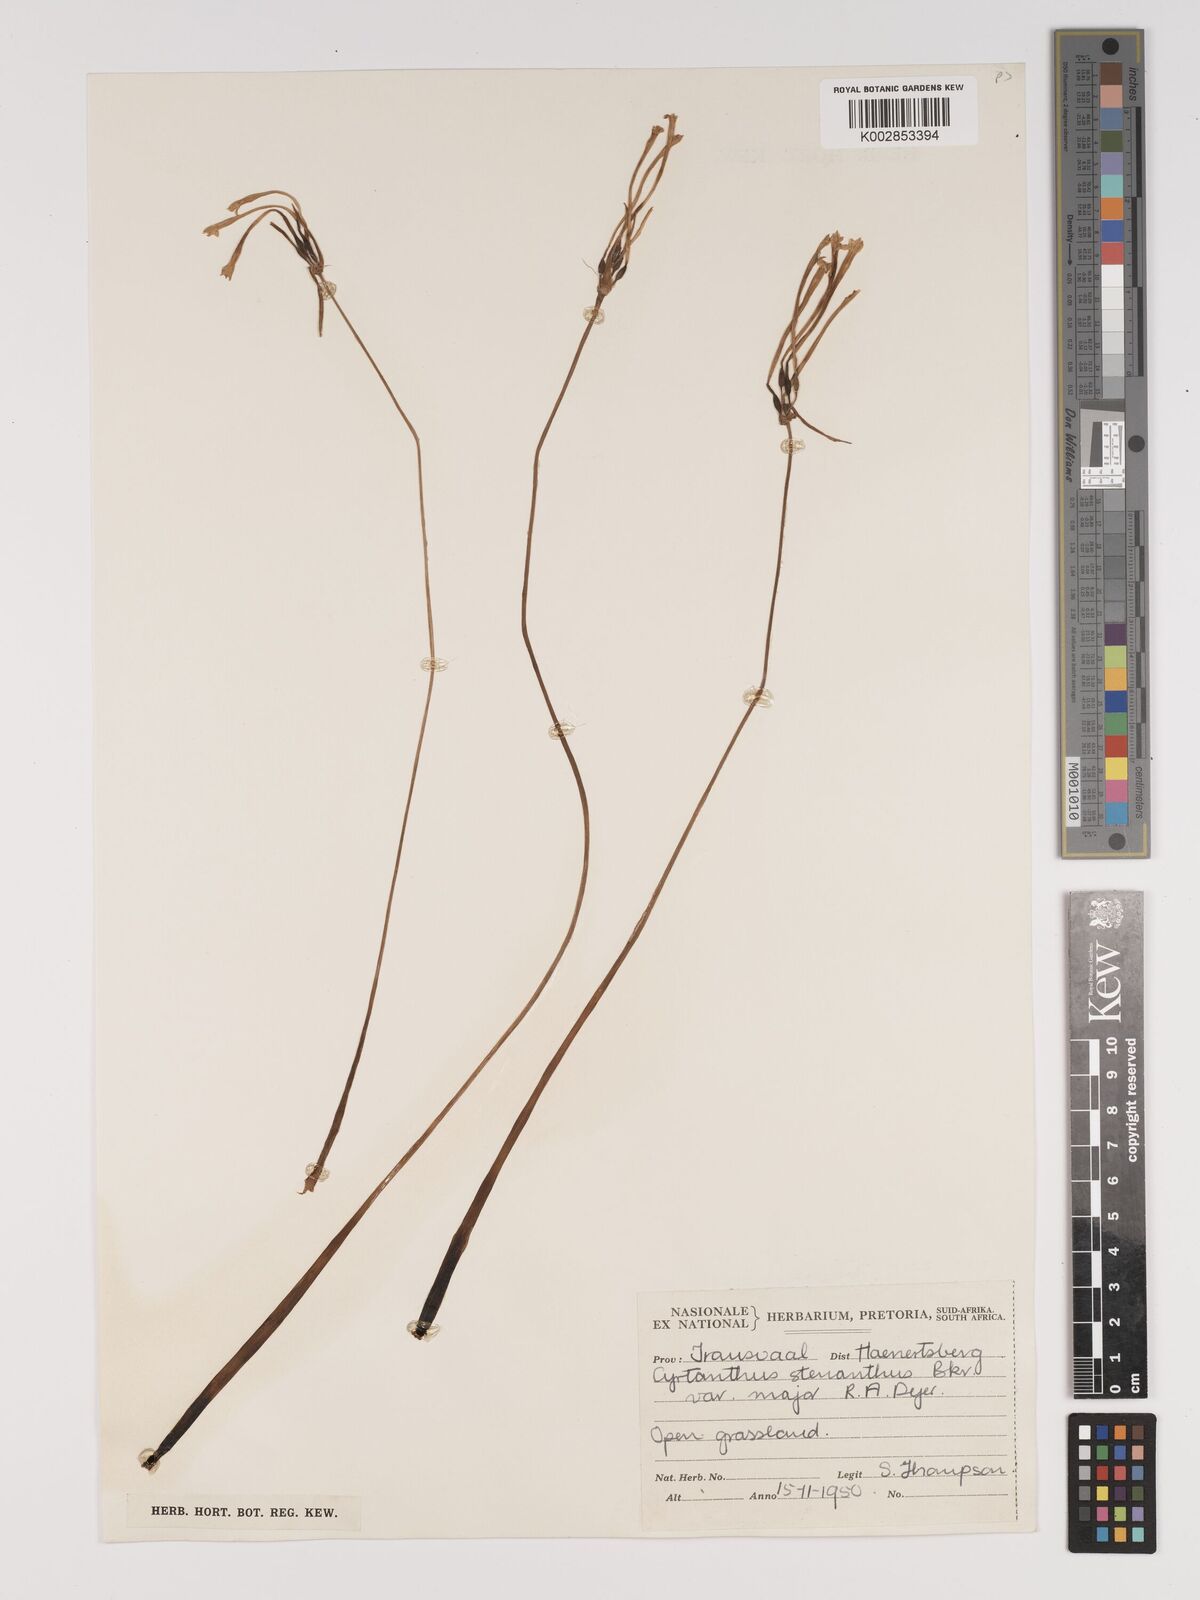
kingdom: Plantae
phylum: Tracheophyta
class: Liliopsida
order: Asparagales
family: Amaryllidaceae
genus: Cyrtanthus
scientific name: Cyrtanthus stenanthus
